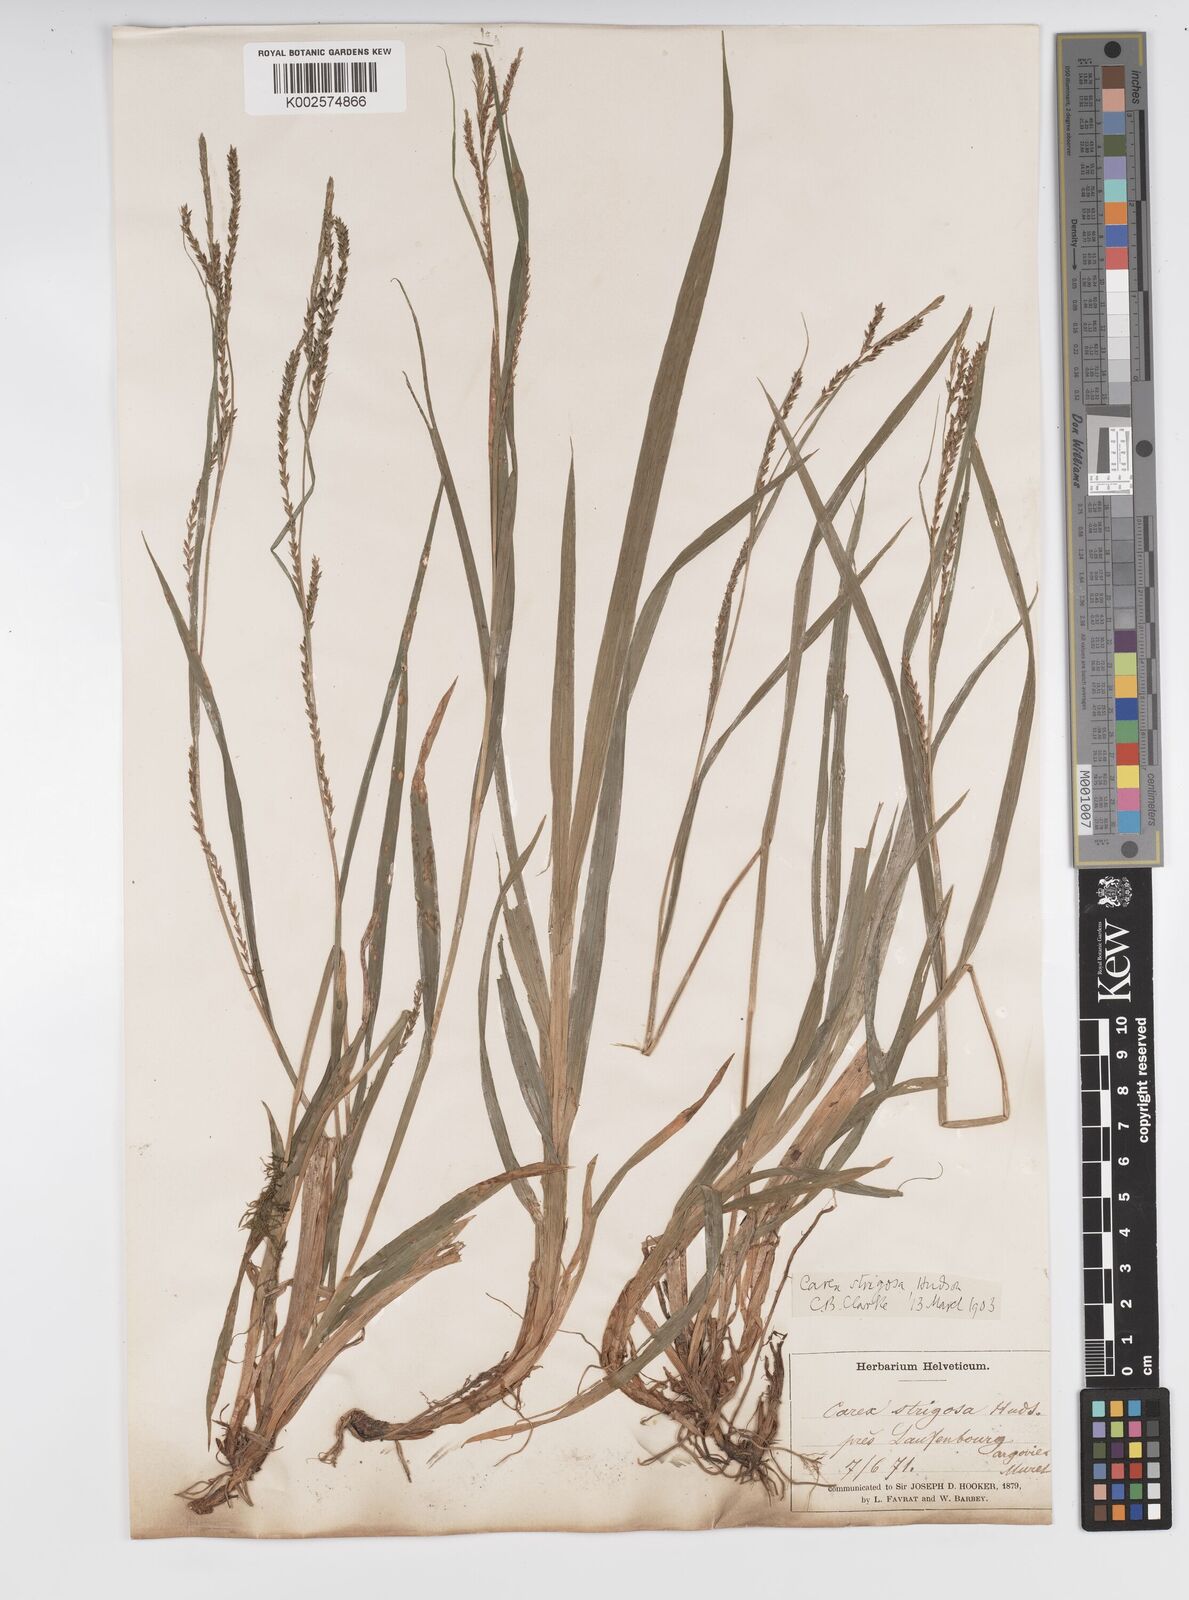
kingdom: Plantae
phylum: Tracheophyta
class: Liliopsida
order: Poales
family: Cyperaceae
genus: Carex
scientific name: Carex strigosa
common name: Thin-spiked wood-sedge
